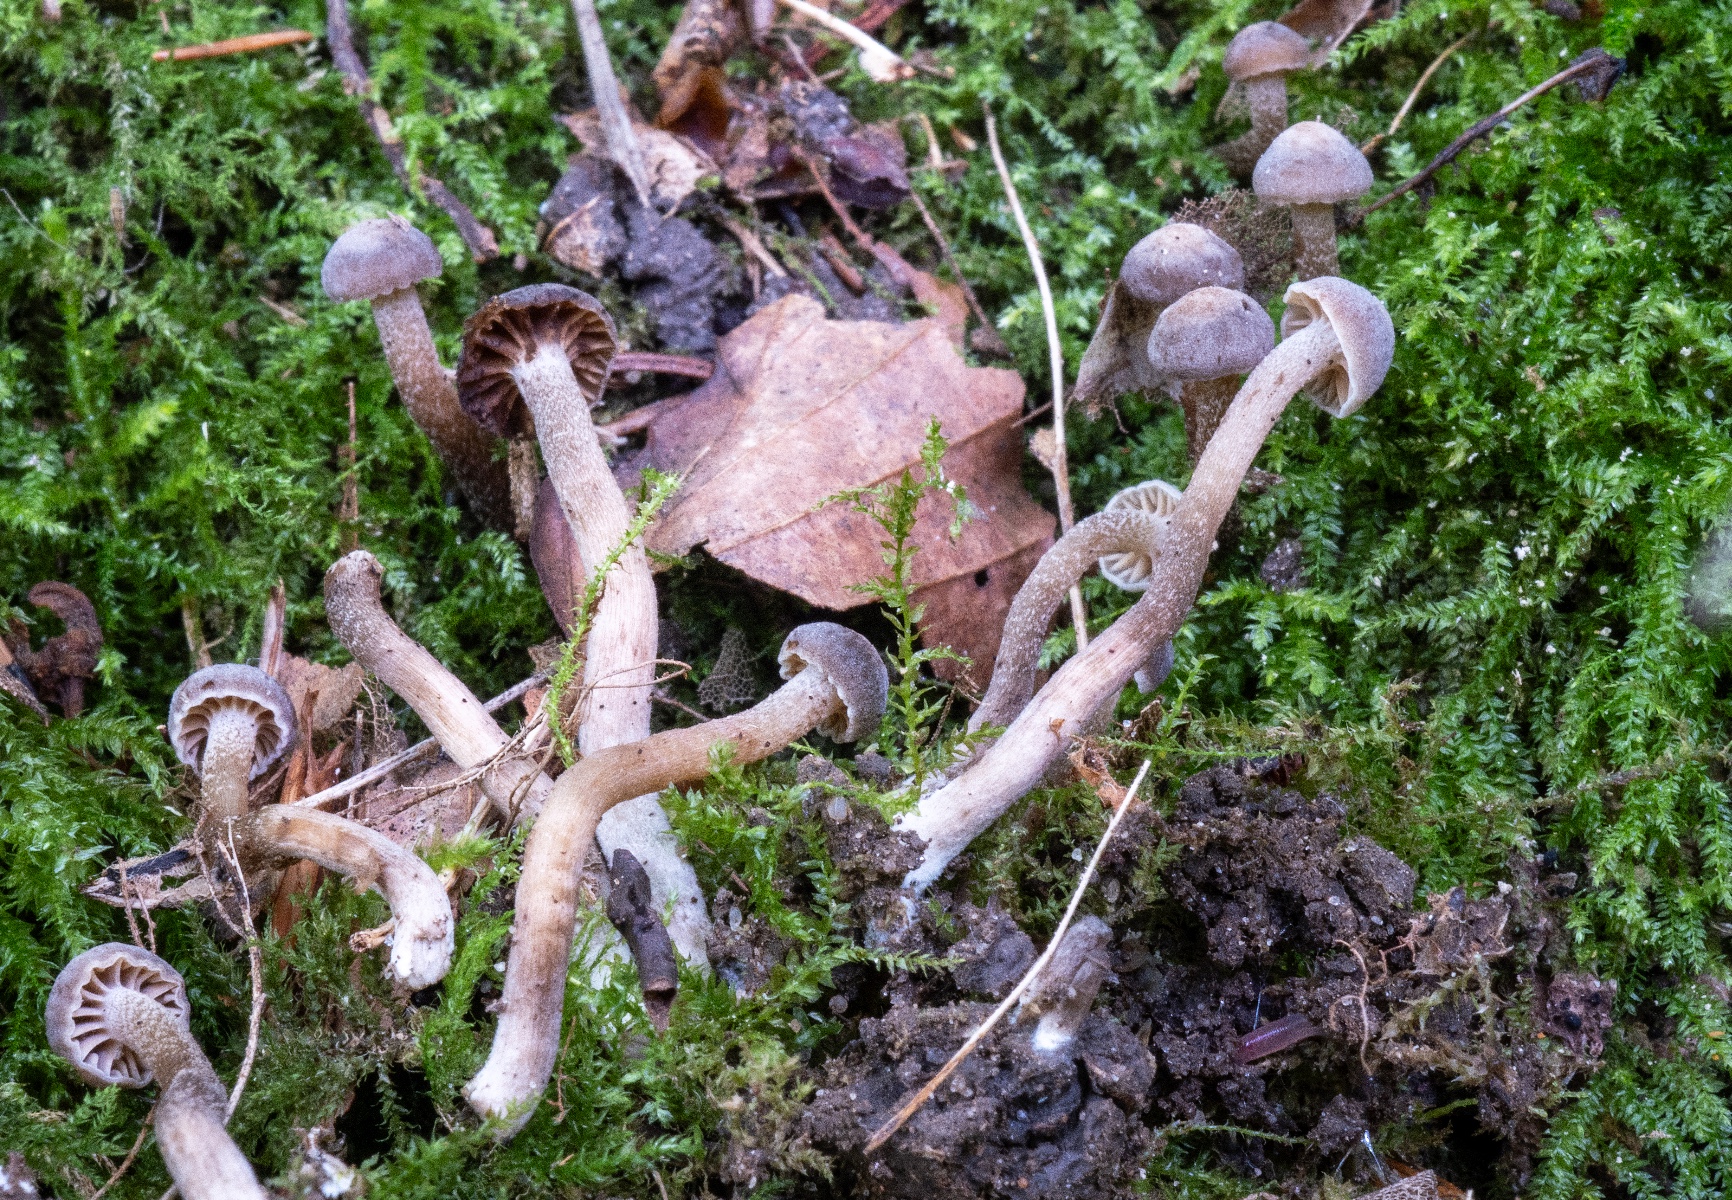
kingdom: Fungi
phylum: Basidiomycota
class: Agaricomycetes
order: Agaricales
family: Clavariaceae
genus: Hodophilus
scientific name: Hodophilus
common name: kratvokshat
